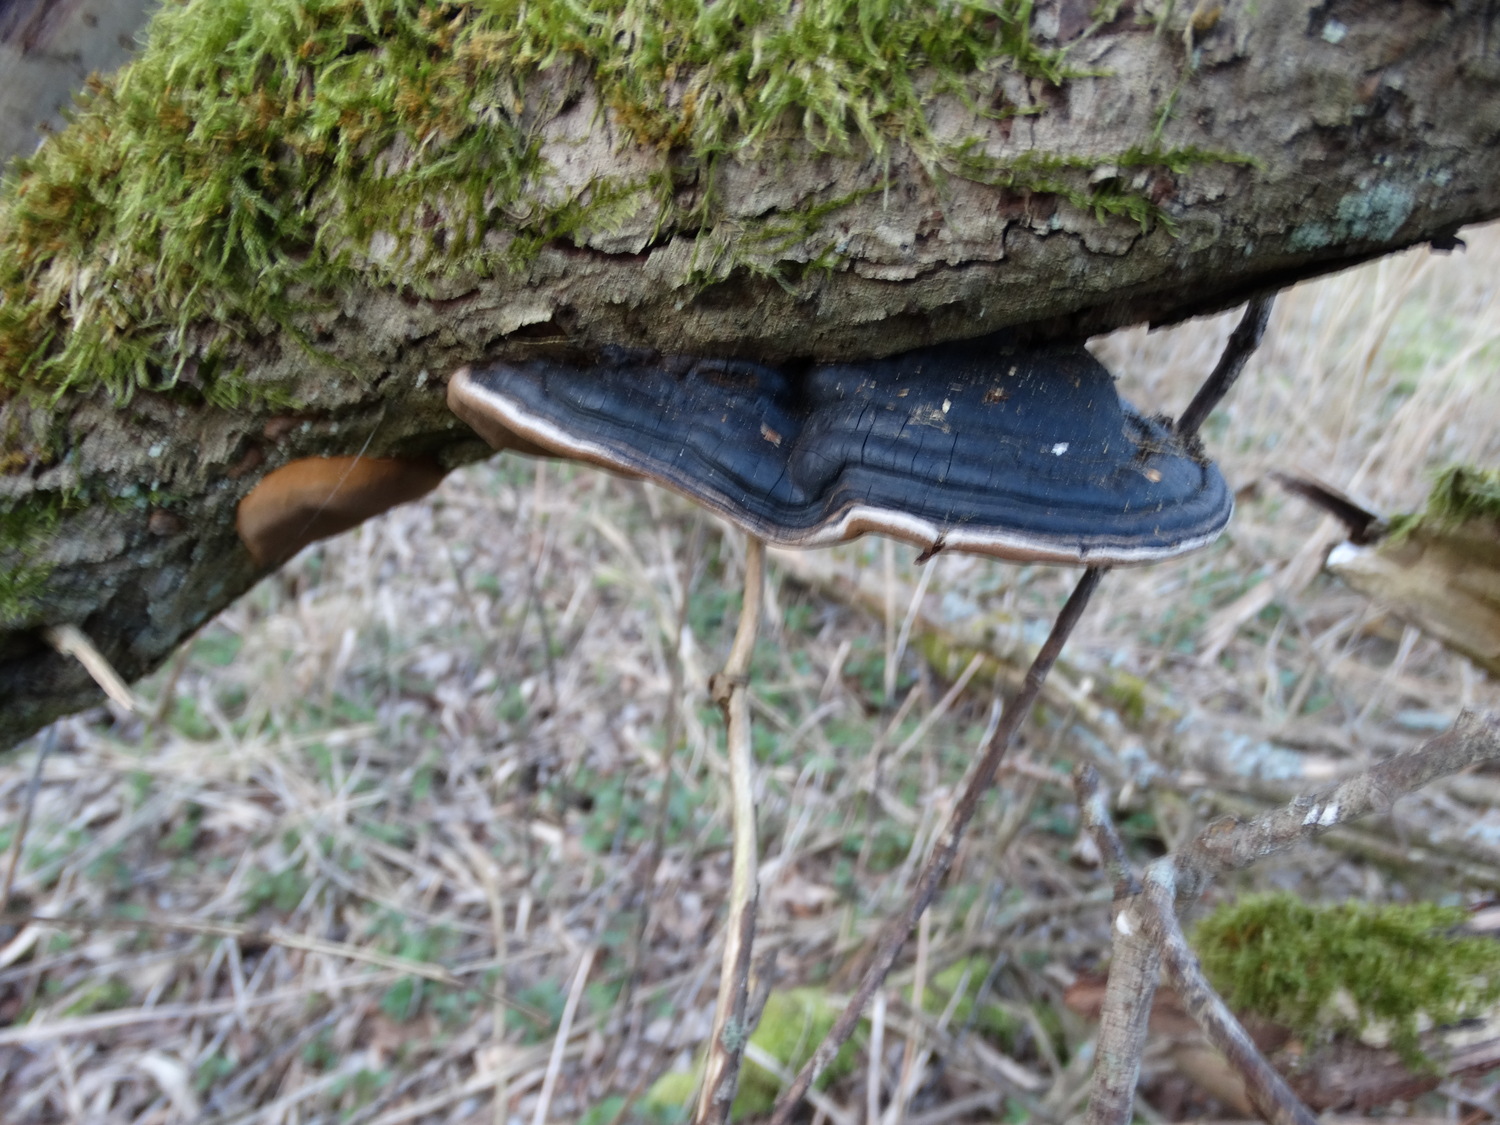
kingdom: Fungi
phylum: Basidiomycota
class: Agaricomycetes
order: Hymenochaetales
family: Hymenochaetaceae
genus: Phellinus
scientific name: Phellinus igniarius
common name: almindelig ildporesvamp
